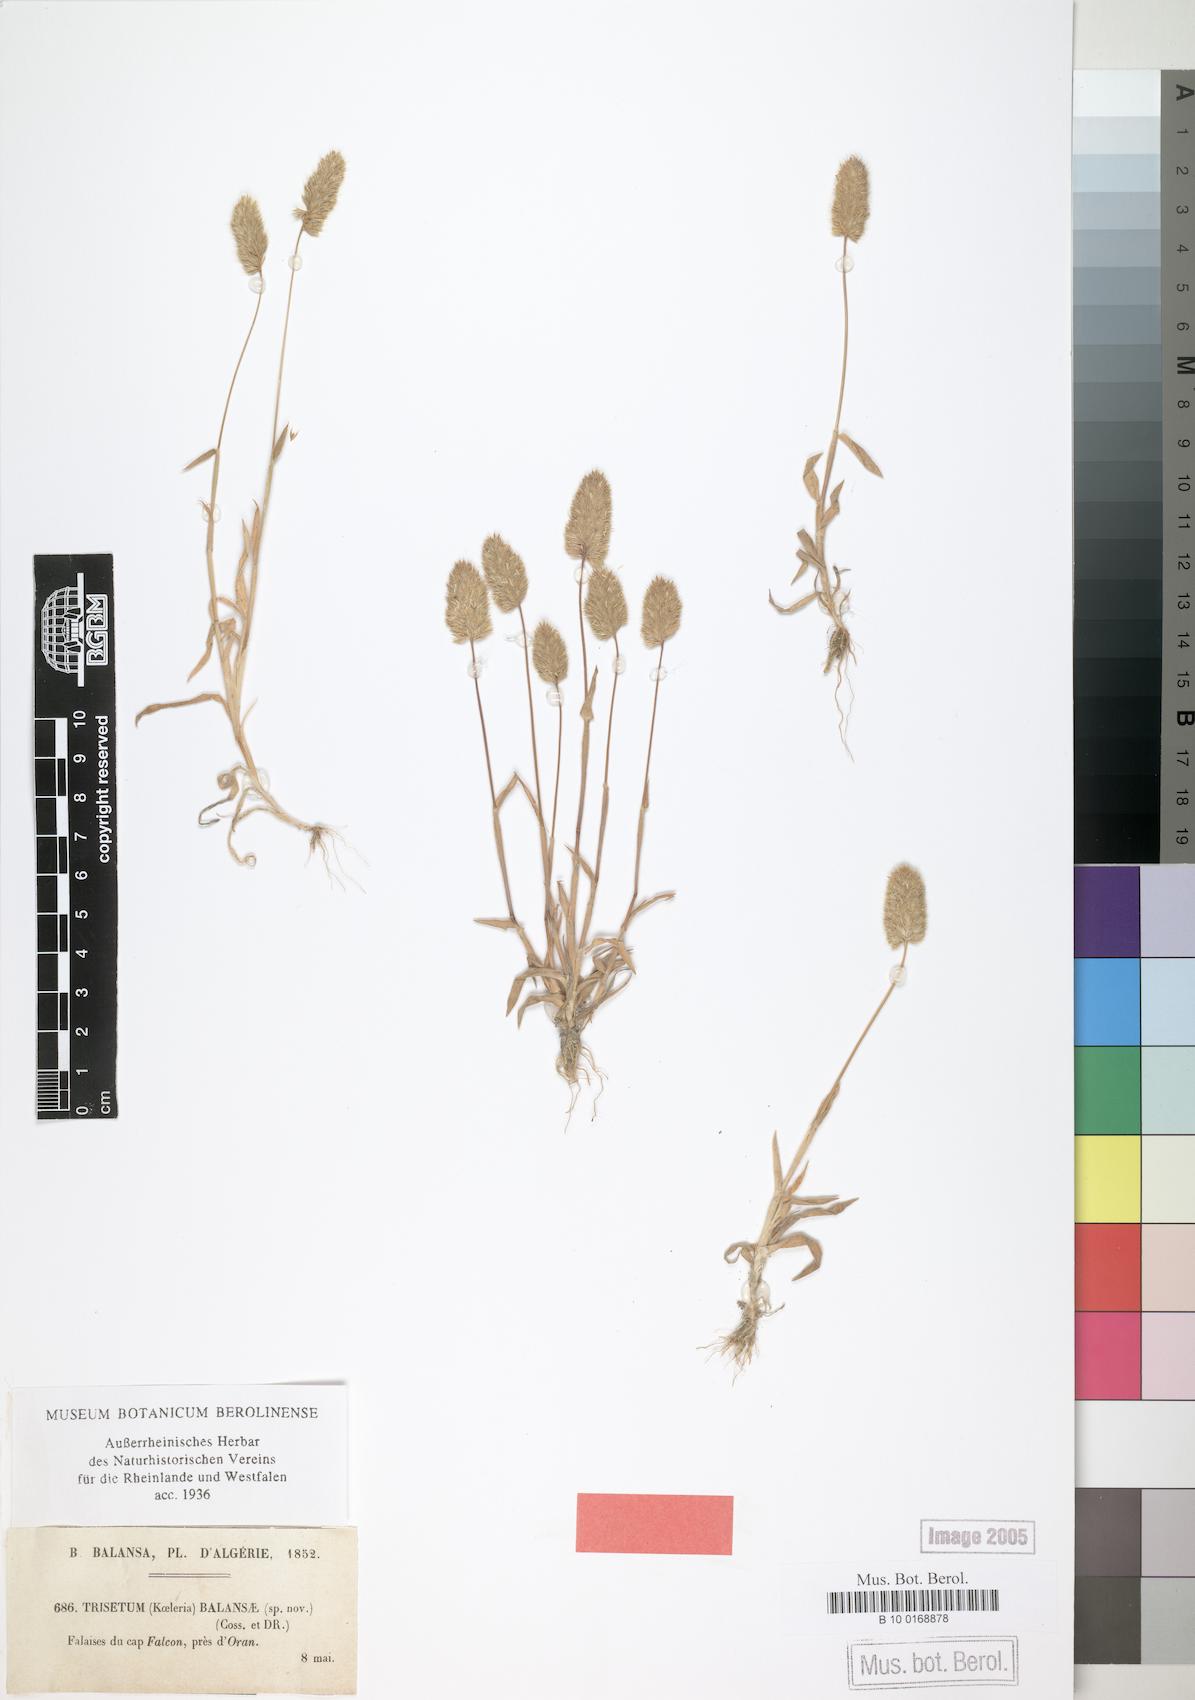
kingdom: Plantae
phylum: Tracheophyta
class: Liliopsida
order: Poales
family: Poaceae
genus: Trisetum
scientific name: Trisetum
